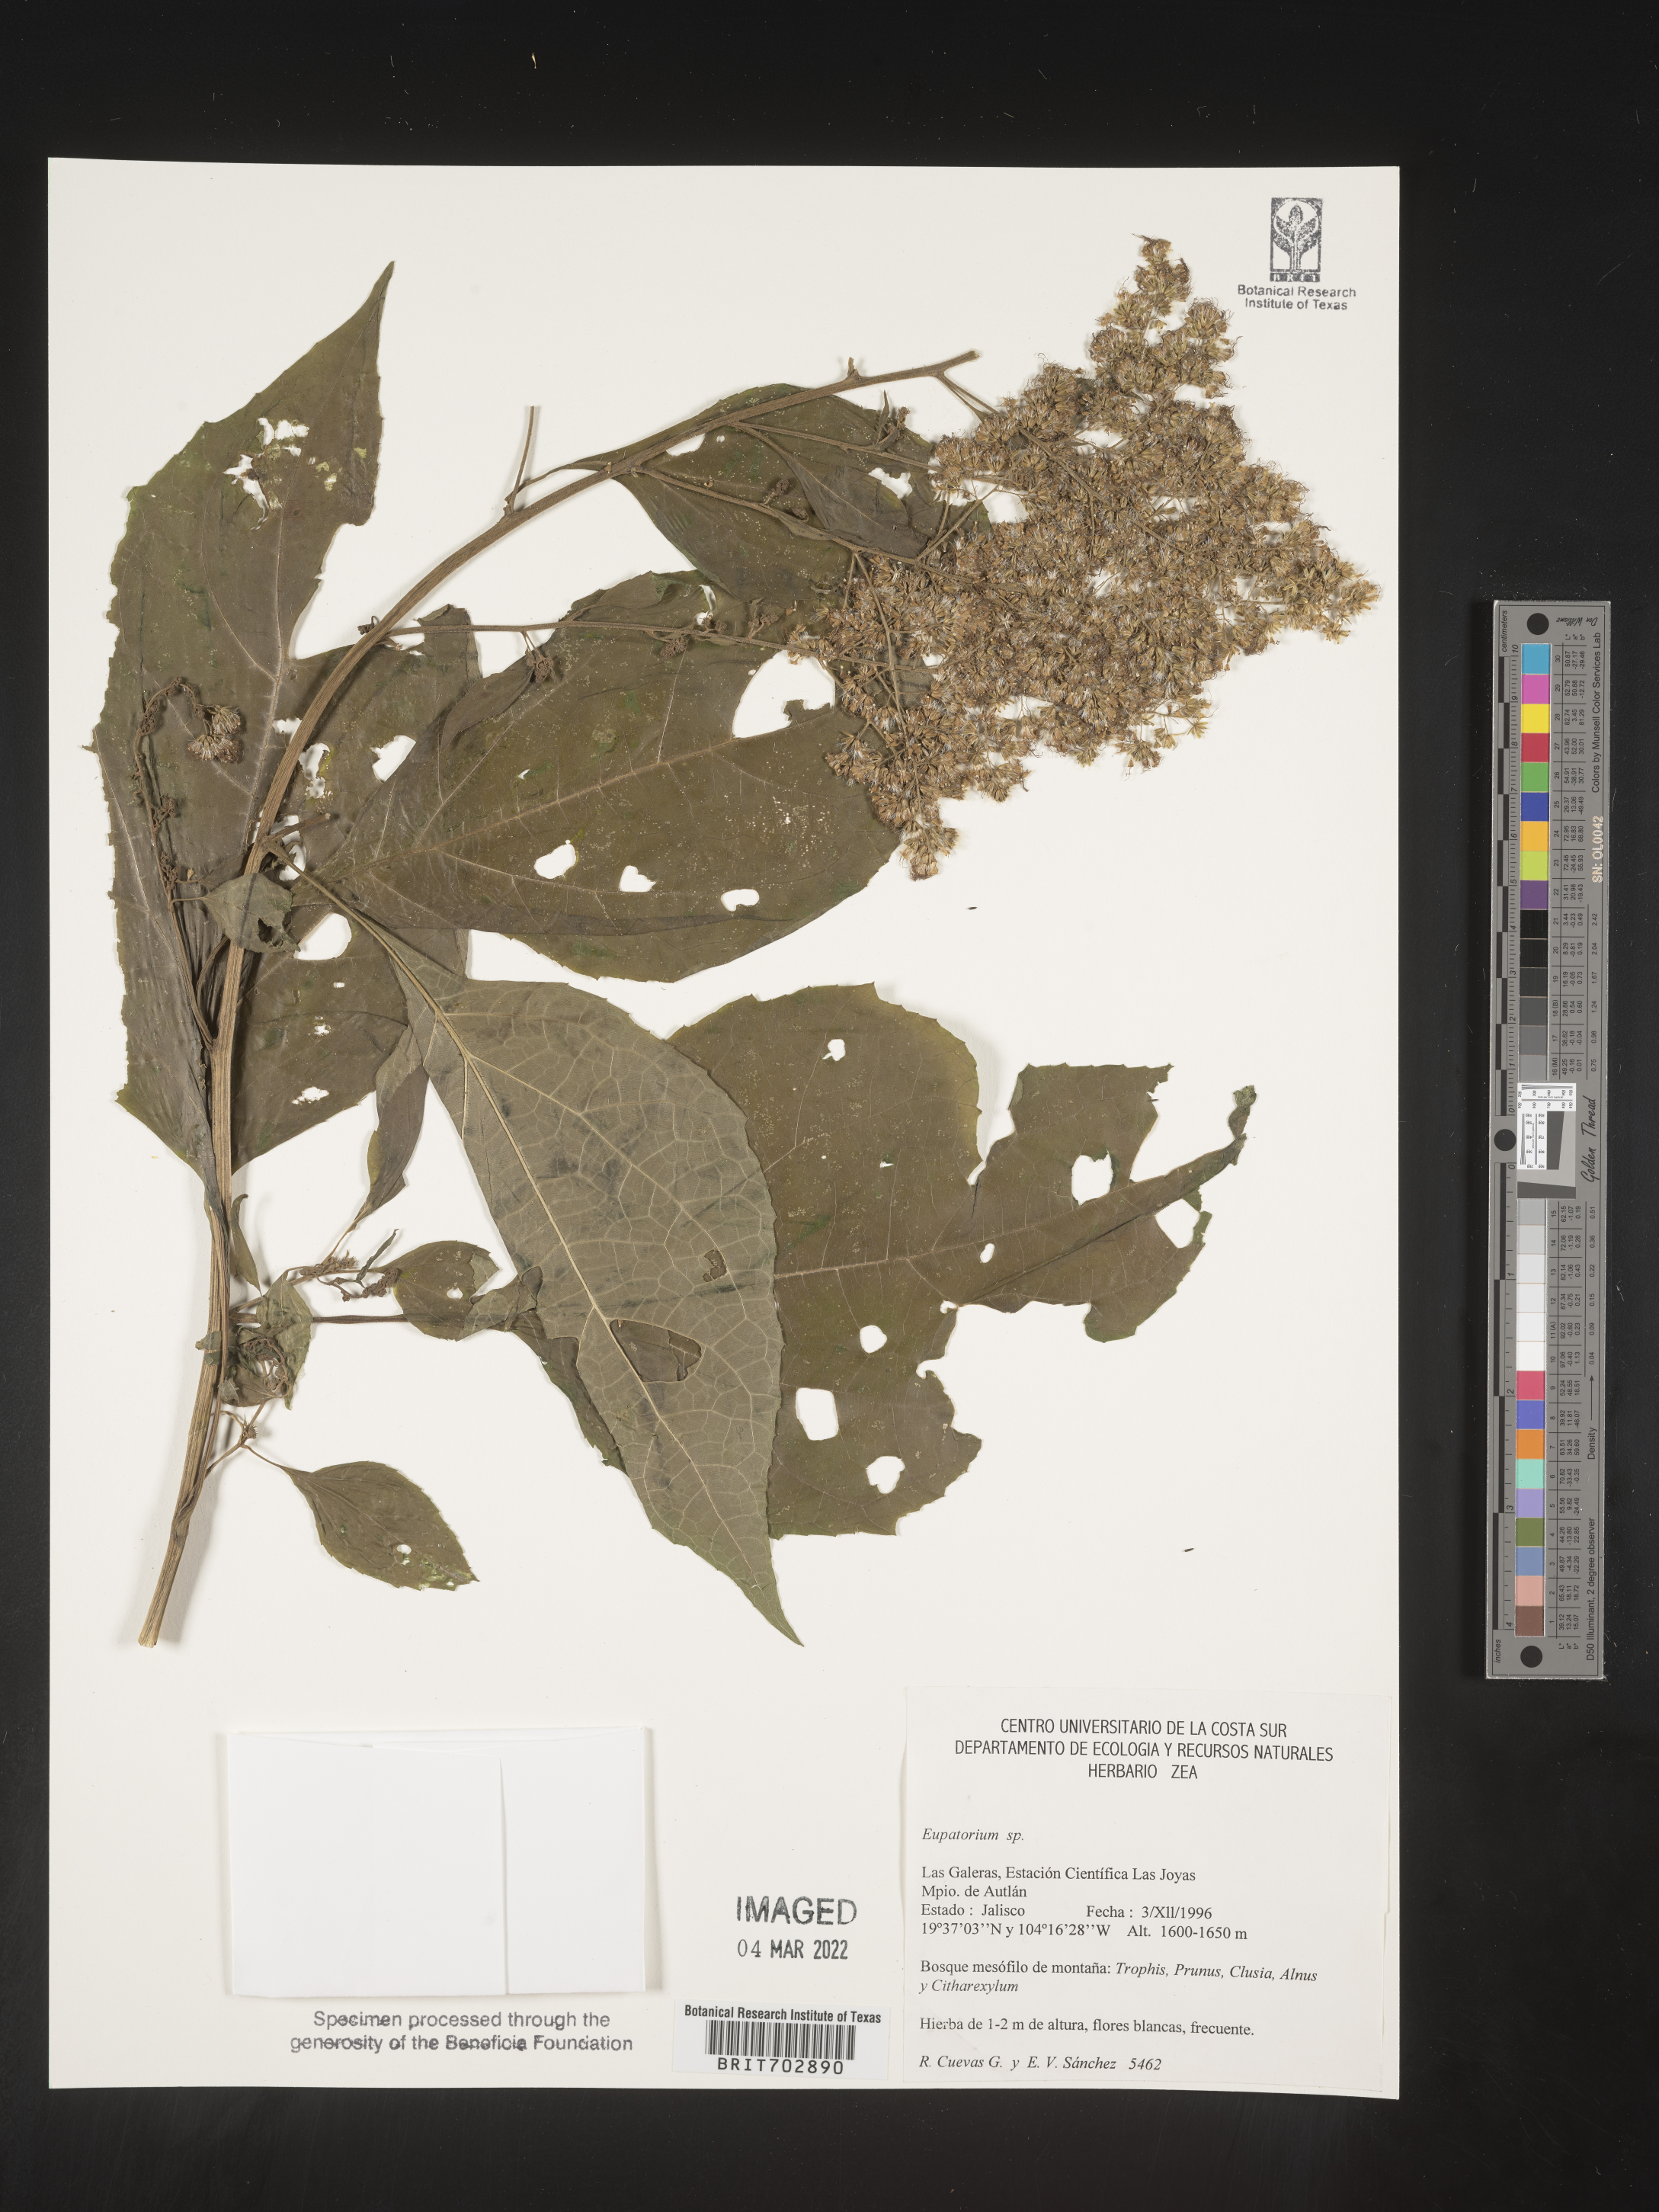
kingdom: Plantae
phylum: Tracheophyta
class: Magnoliopsida
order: Asterales
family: Asteraceae
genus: Eupatorium
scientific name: Eupatorium
